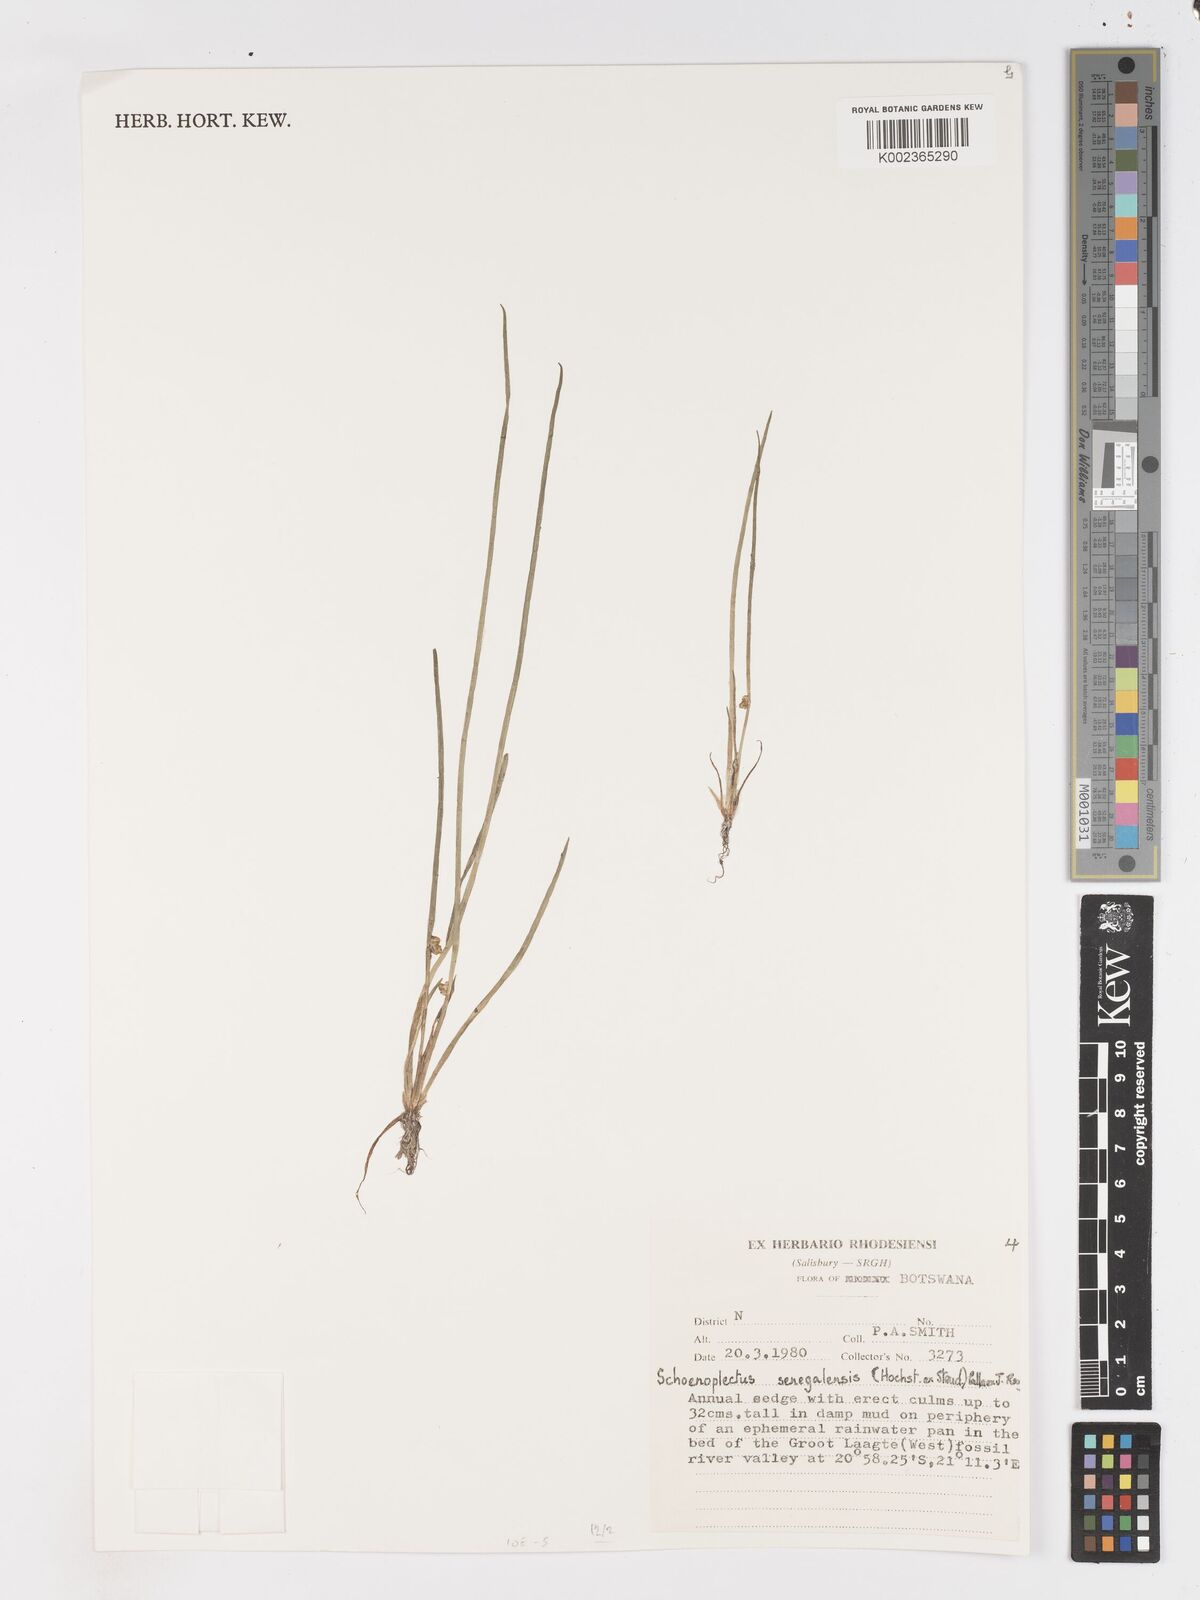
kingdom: Plantae
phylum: Tracheophyta
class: Liliopsida
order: Poales
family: Cyperaceae
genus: Schoenoplectiella
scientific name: Schoenoplectiella senegalensis
